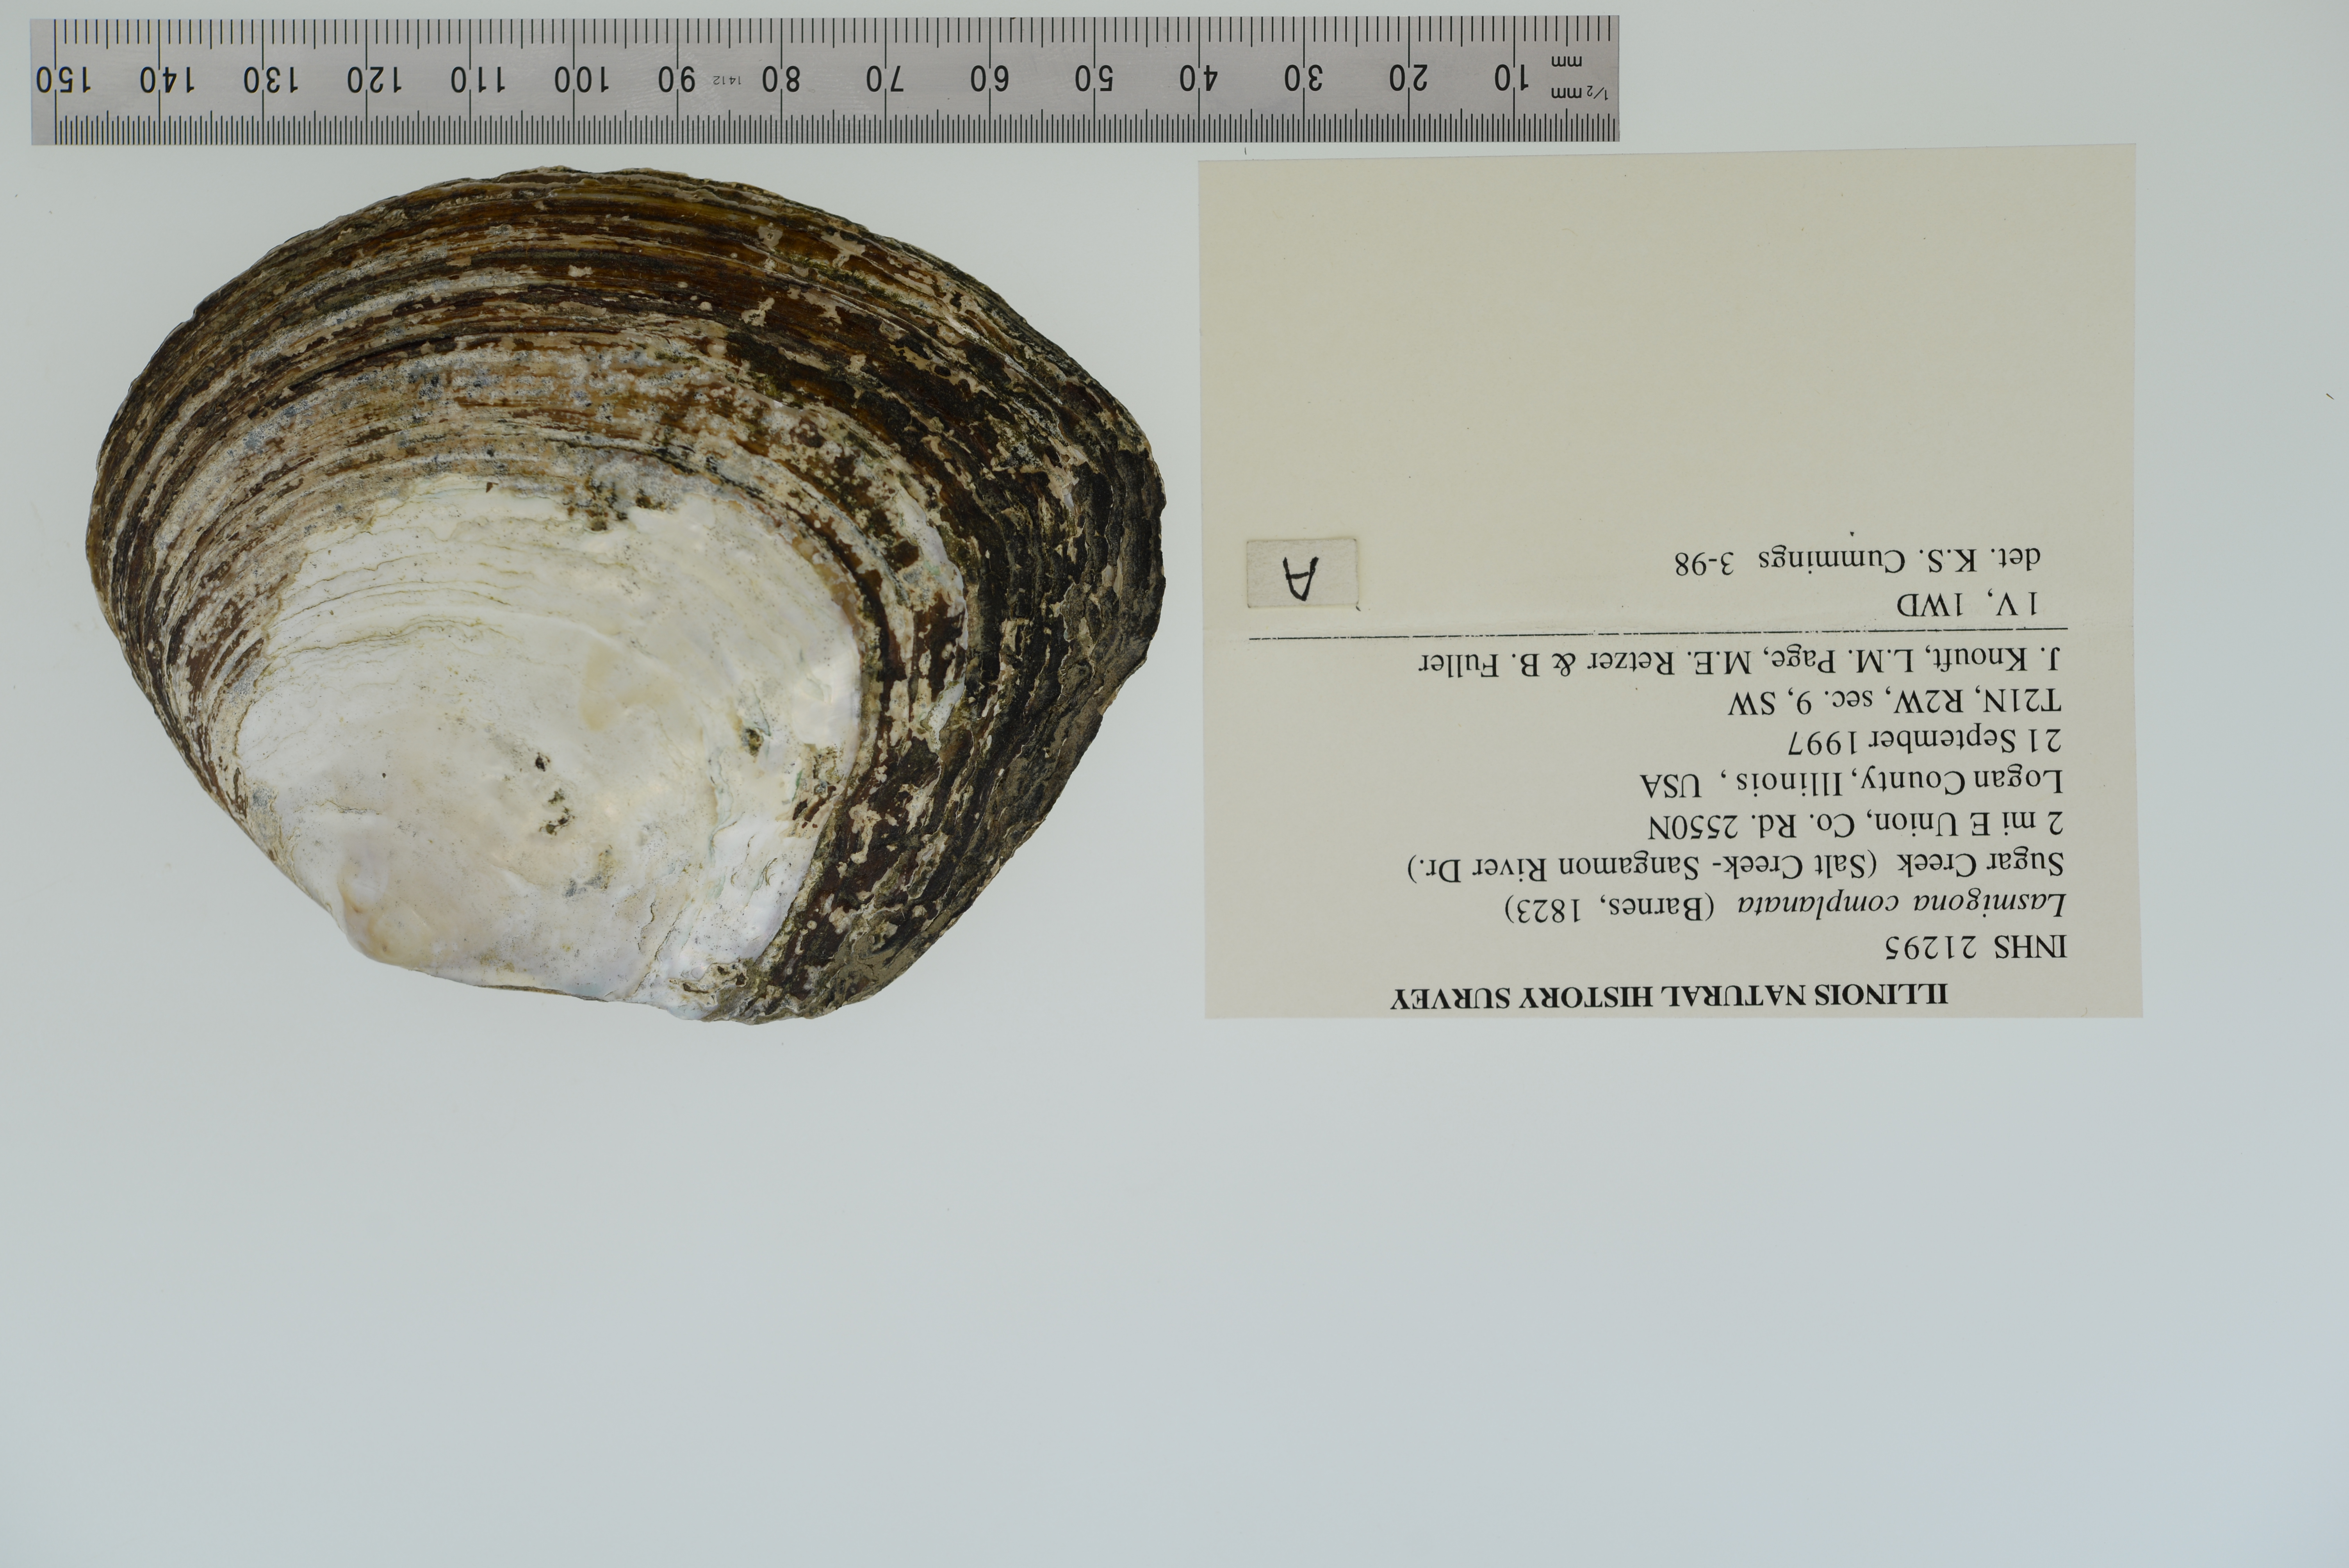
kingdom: Animalia
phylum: Mollusca
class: Bivalvia
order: Unionida
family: Unionidae
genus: Lasmigona
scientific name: Lasmigona complanata
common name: White heelsplitter
